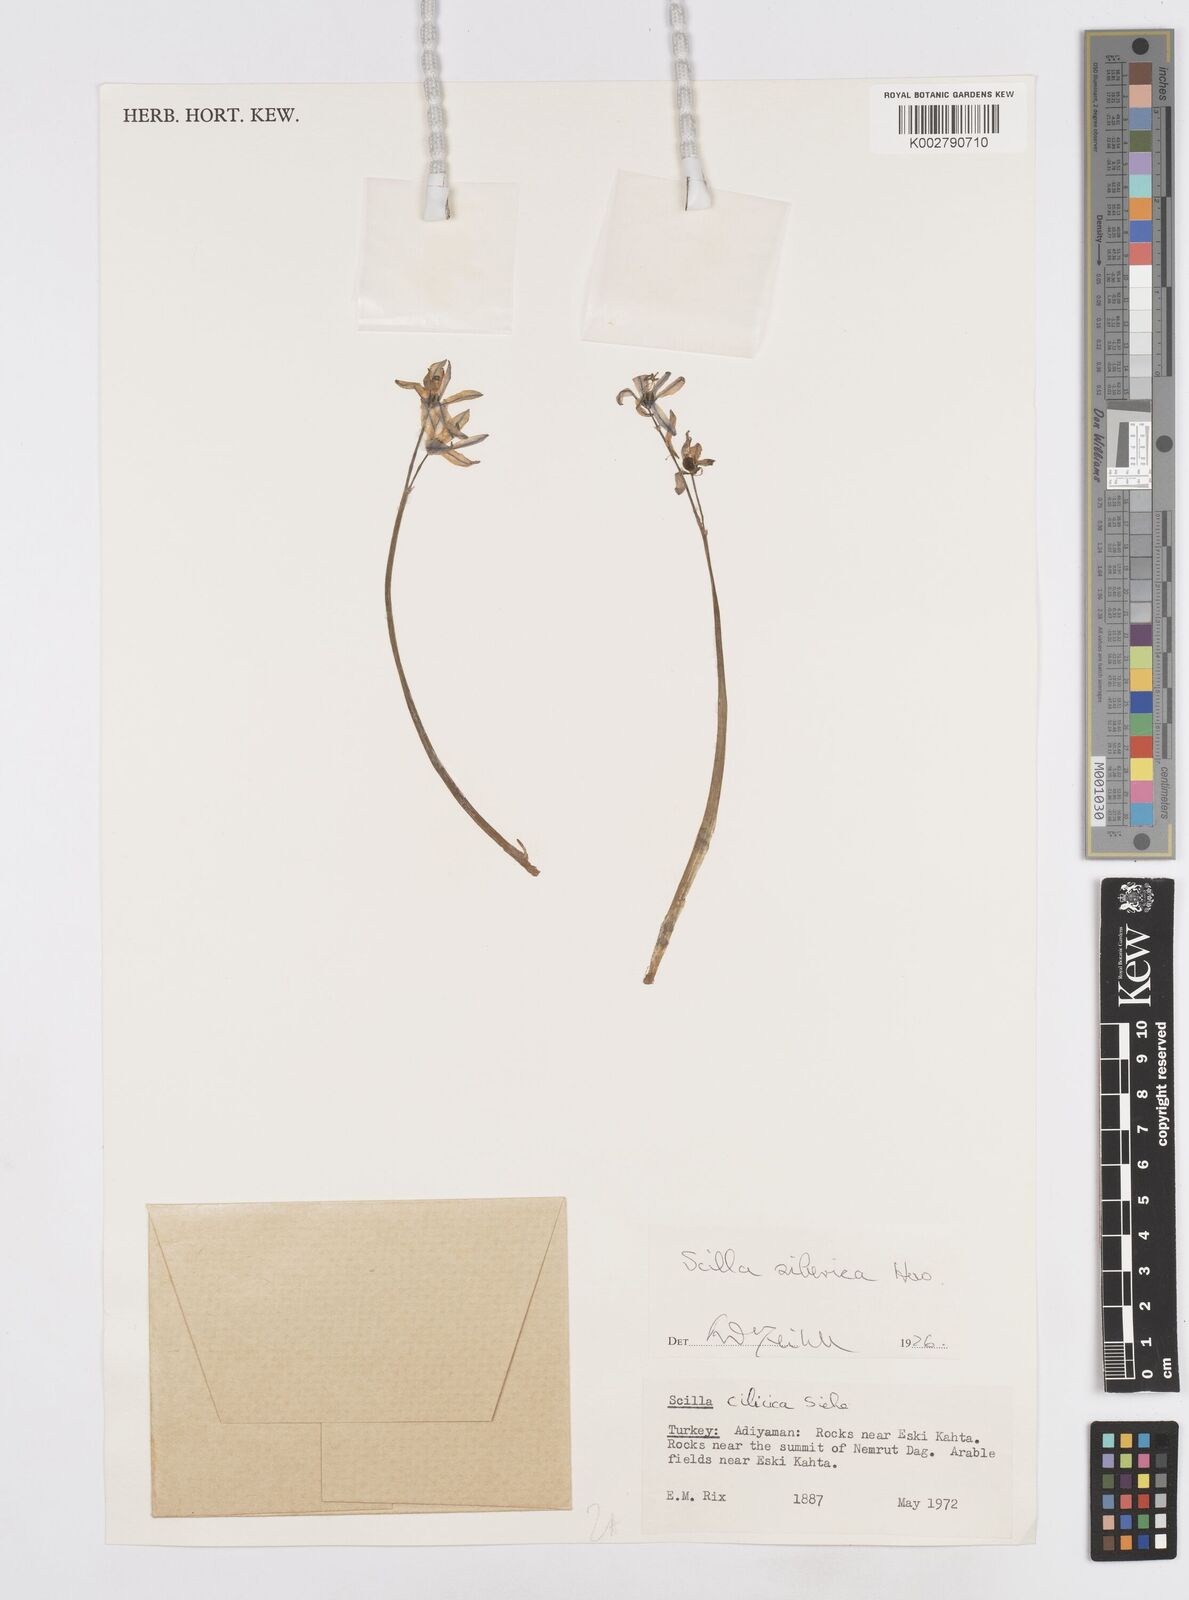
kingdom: Plantae
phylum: Tracheophyta
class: Liliopsida
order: Asparagales
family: Asparagaceae
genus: Scilla
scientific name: Scilla siberica
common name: Siberian squill
